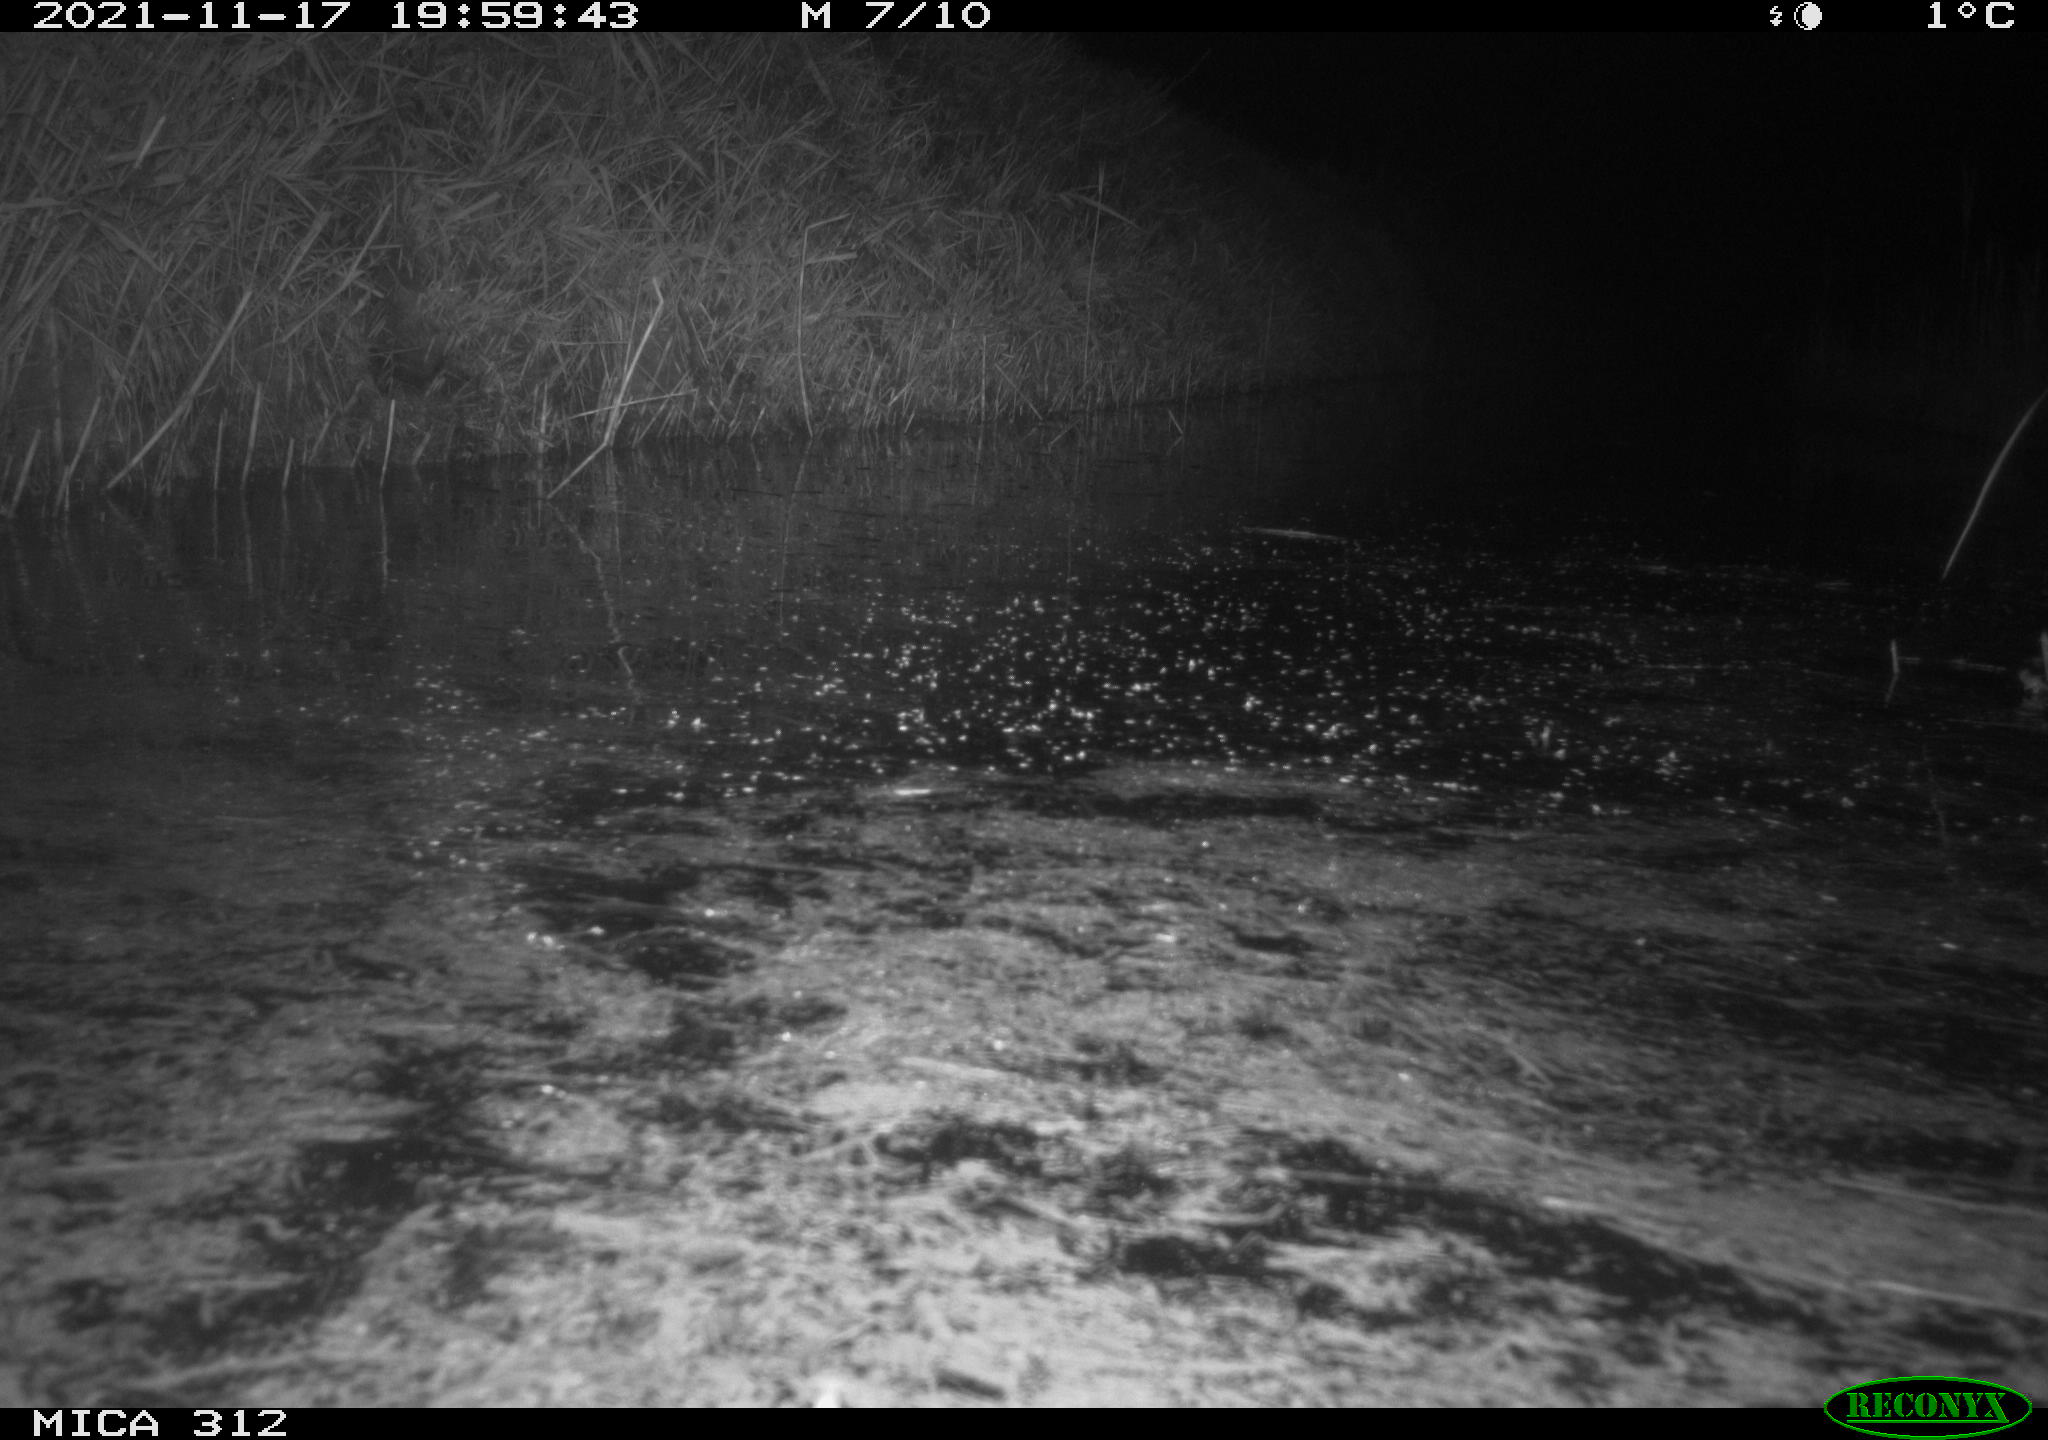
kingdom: Animalia
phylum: Chordata
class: Mammalia
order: Rodentia
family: Muridae
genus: Rattus
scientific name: Rattus norvegicus
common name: Brown rat
